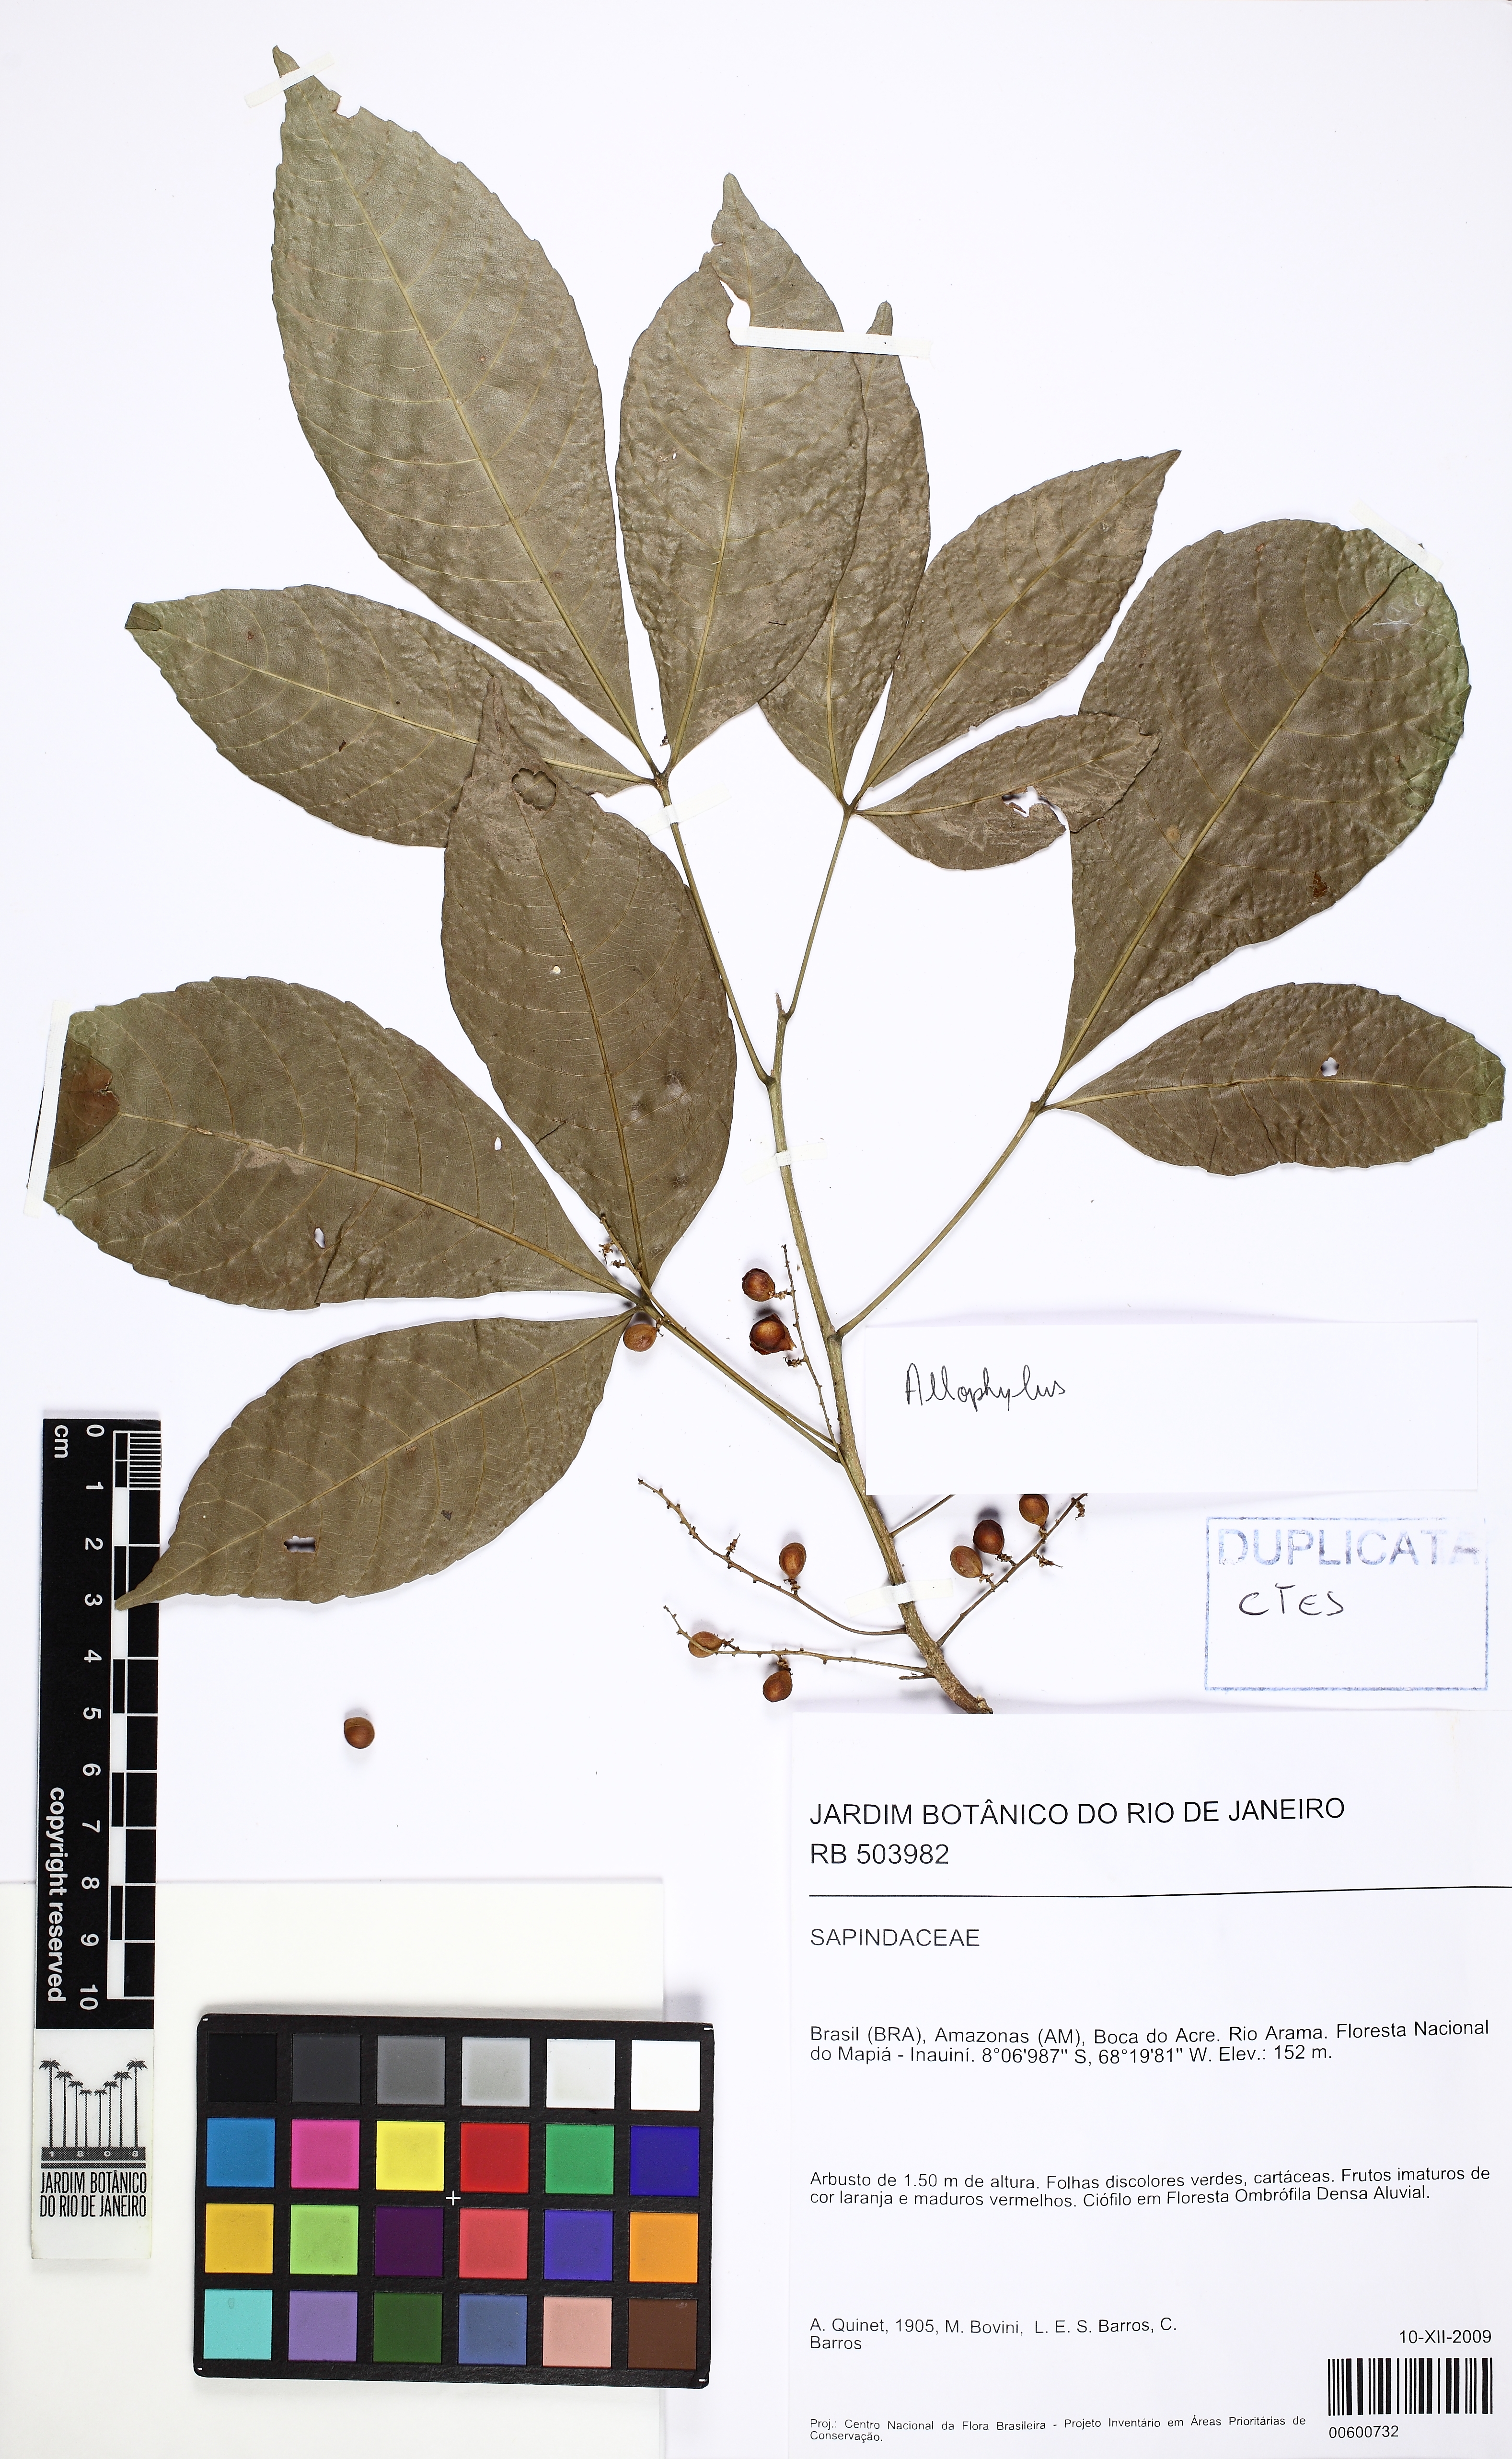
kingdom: Plantae
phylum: Tracheophyta
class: Magnoliopsida
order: Sapindales
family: Sapindaceae
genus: Allophylus
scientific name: Allophylus latifolius
